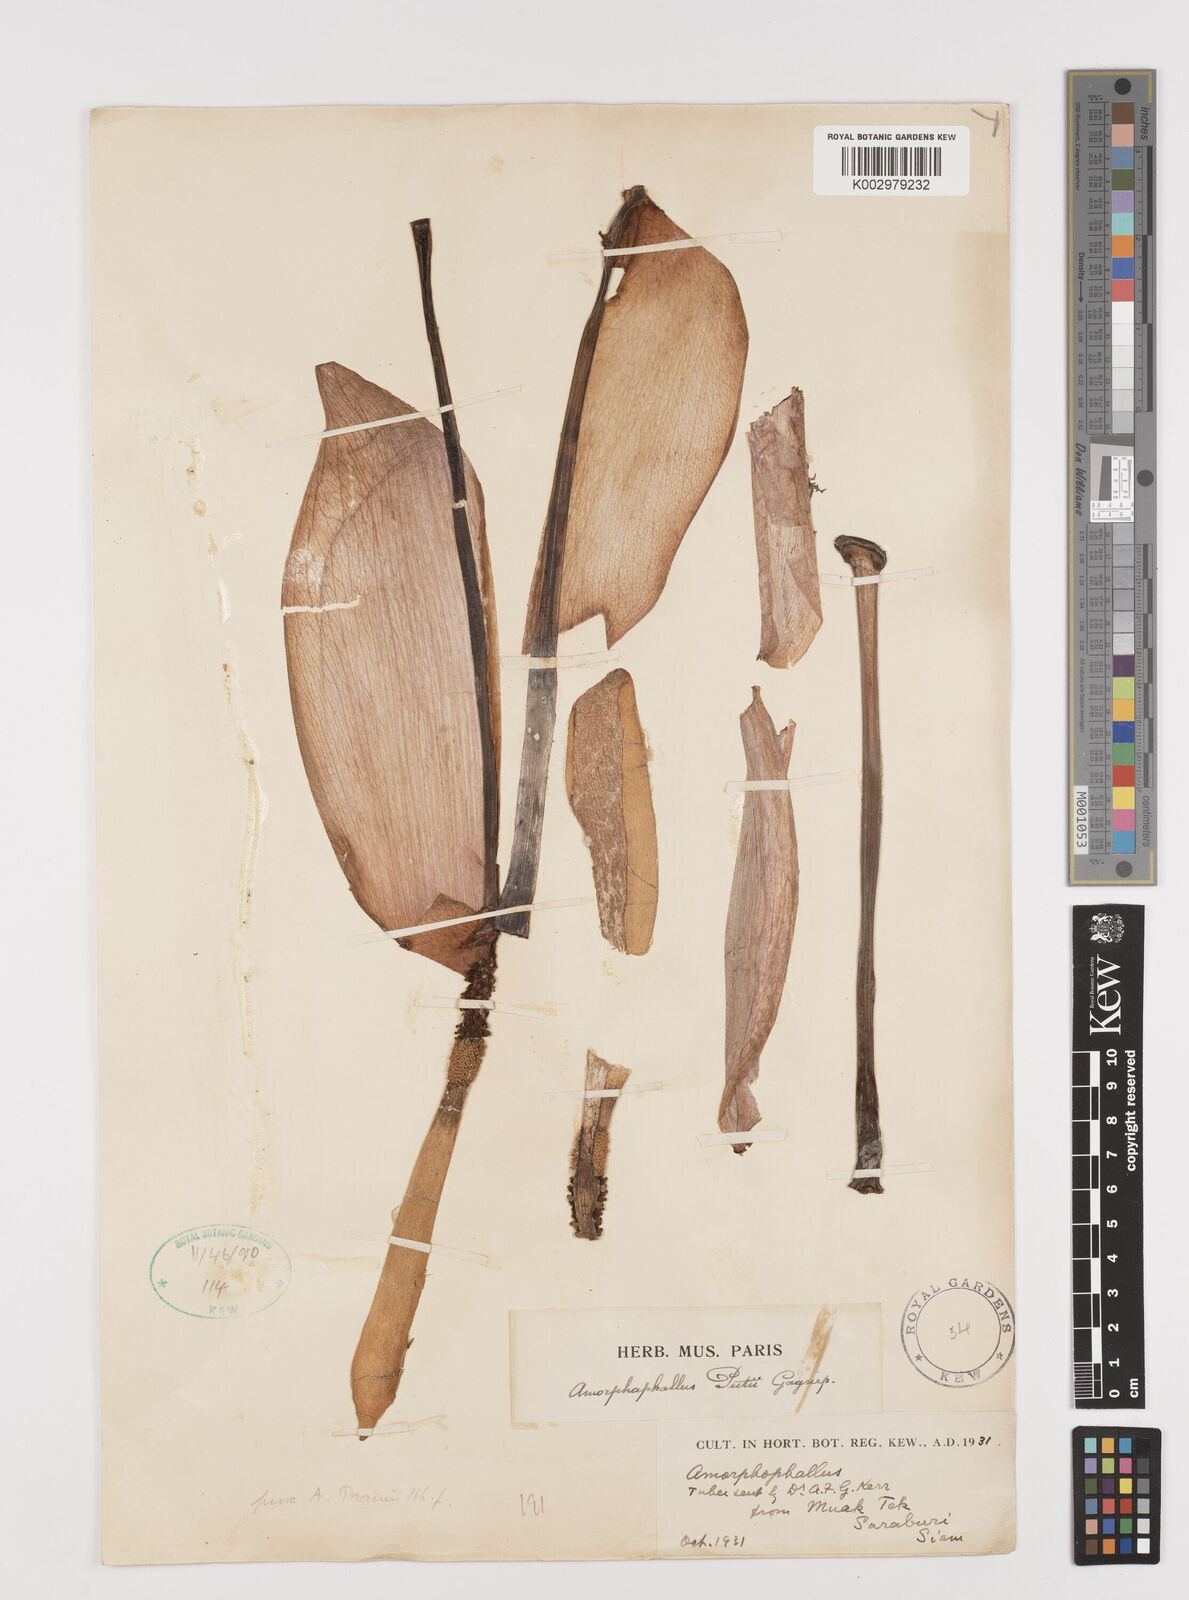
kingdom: Plantae
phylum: Tracheophyta
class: Liliopsida
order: Alismatales
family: Araceae
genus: Amorphophallus
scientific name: Amorphophallus putii
